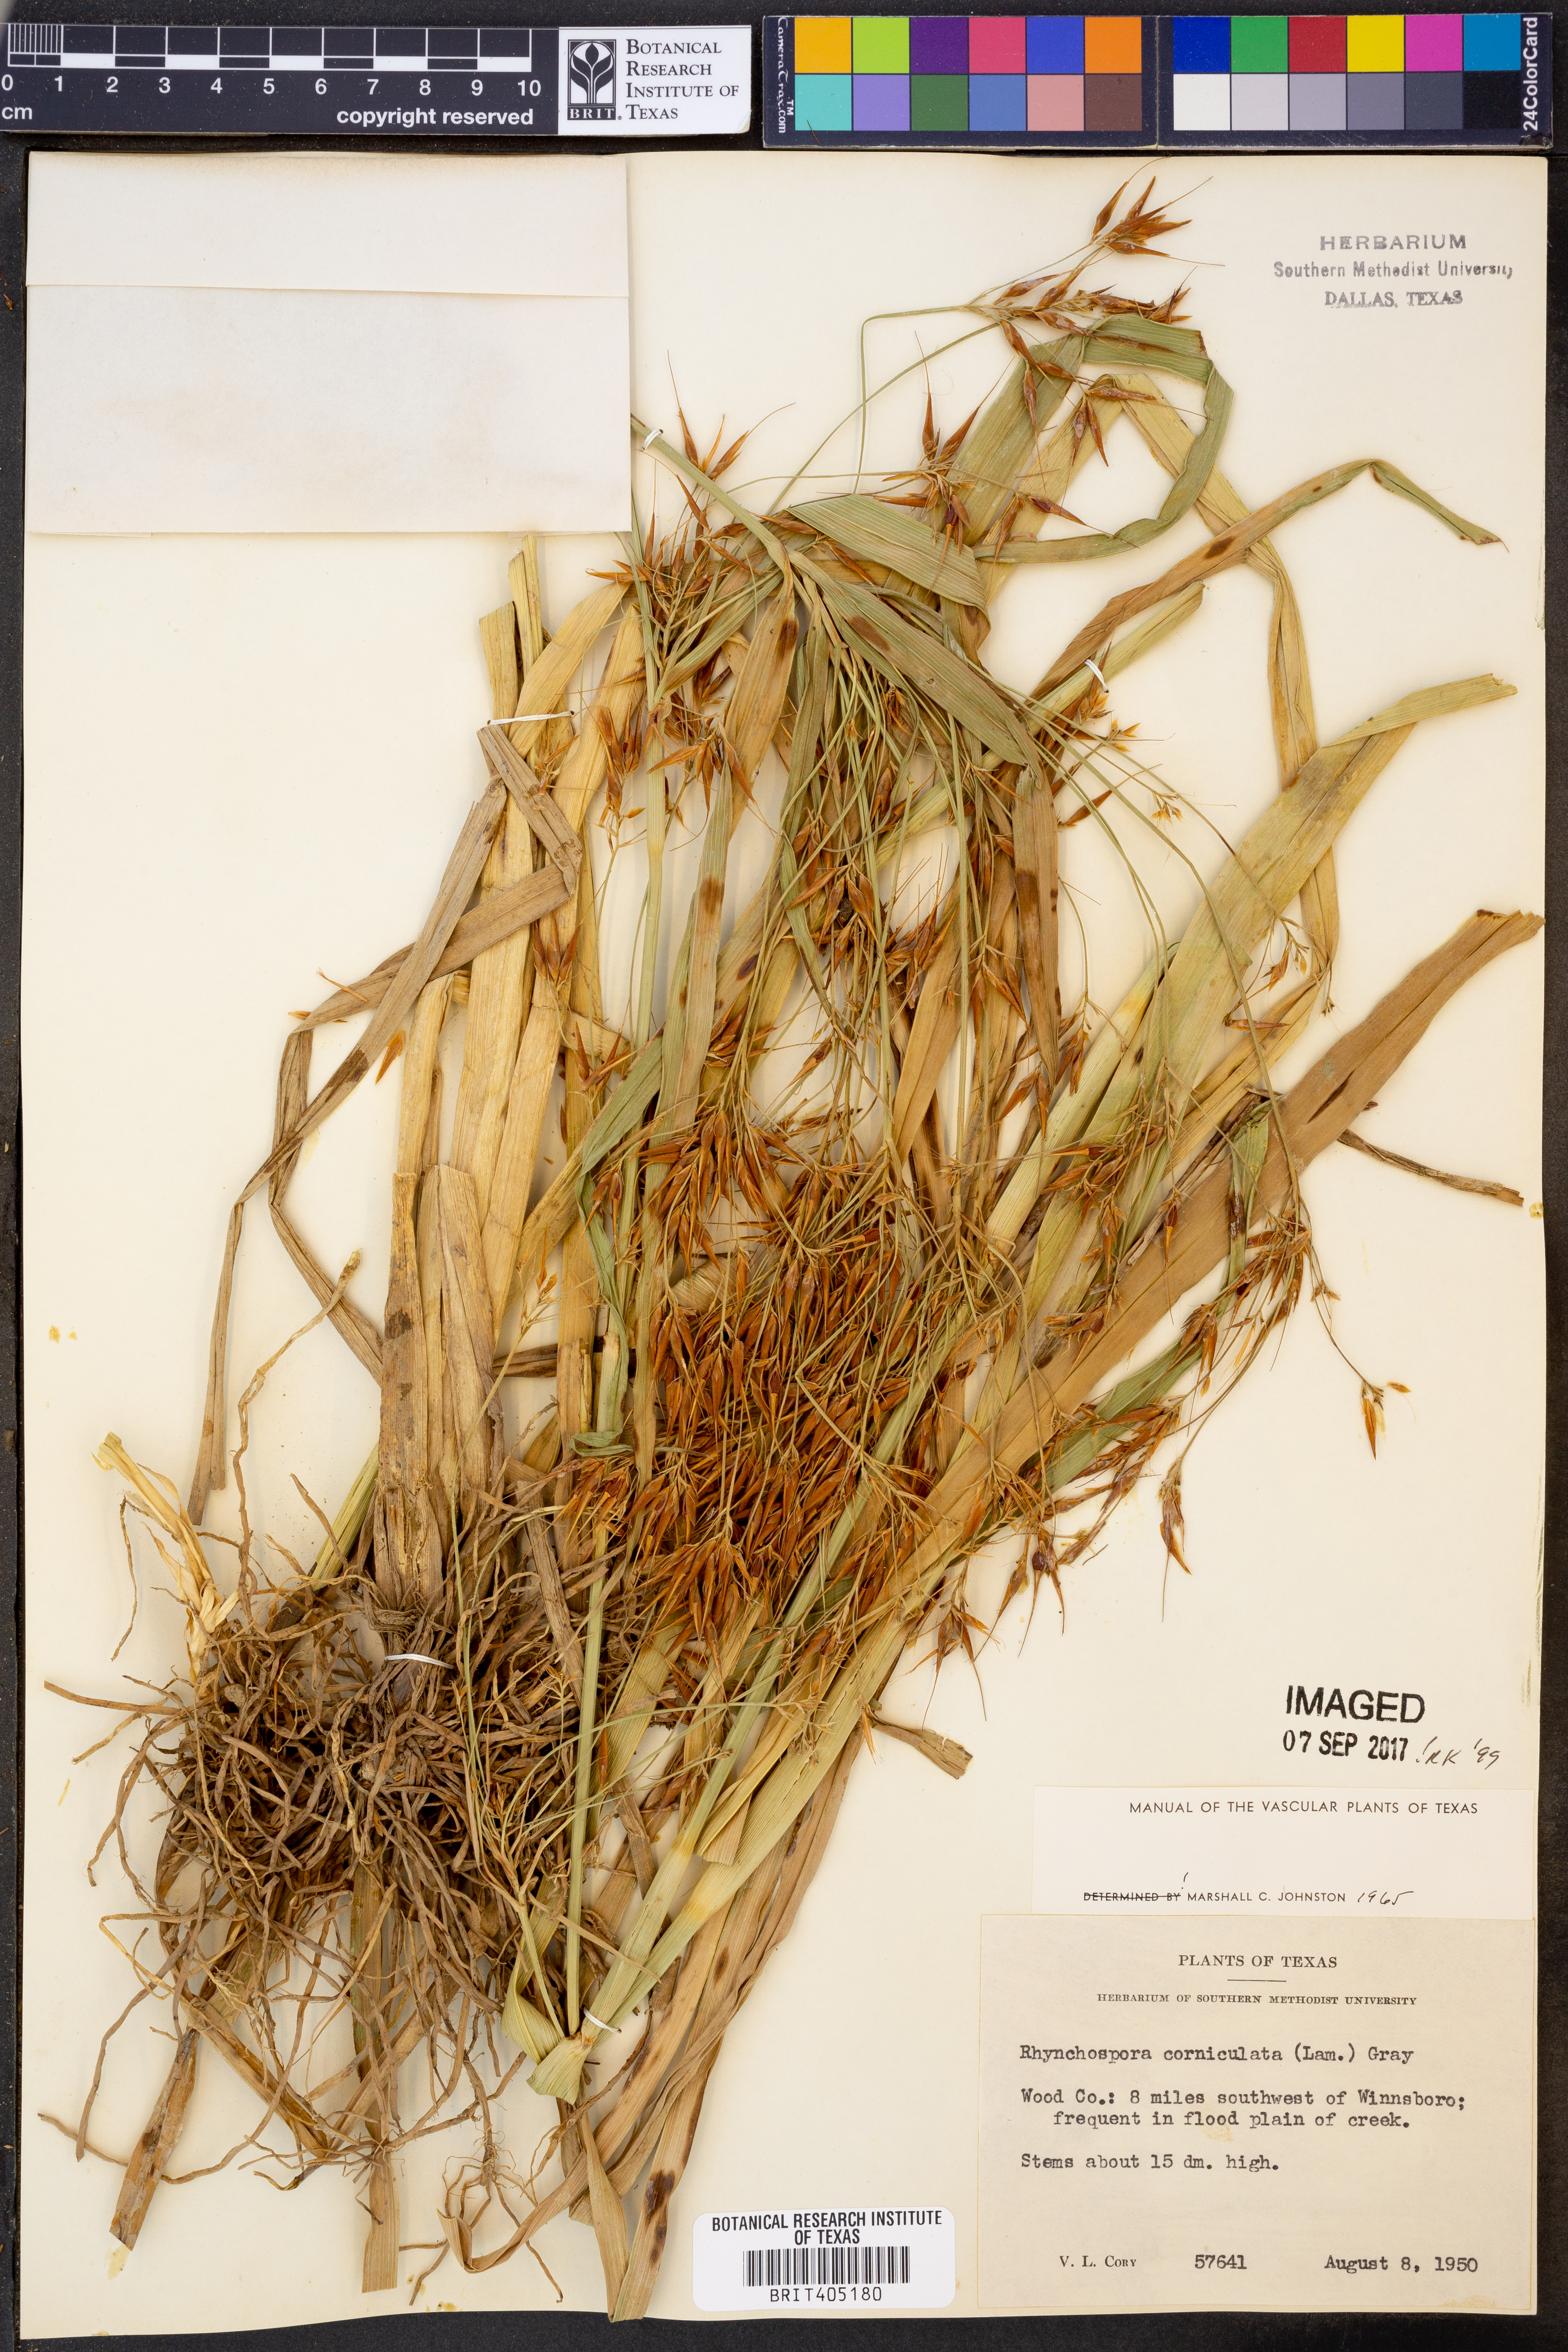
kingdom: Plantae
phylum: Tracheophyta
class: Liliopsida
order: Poales
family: Cyperaceae
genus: Rhynchospora
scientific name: Rhynchospora corniculata
